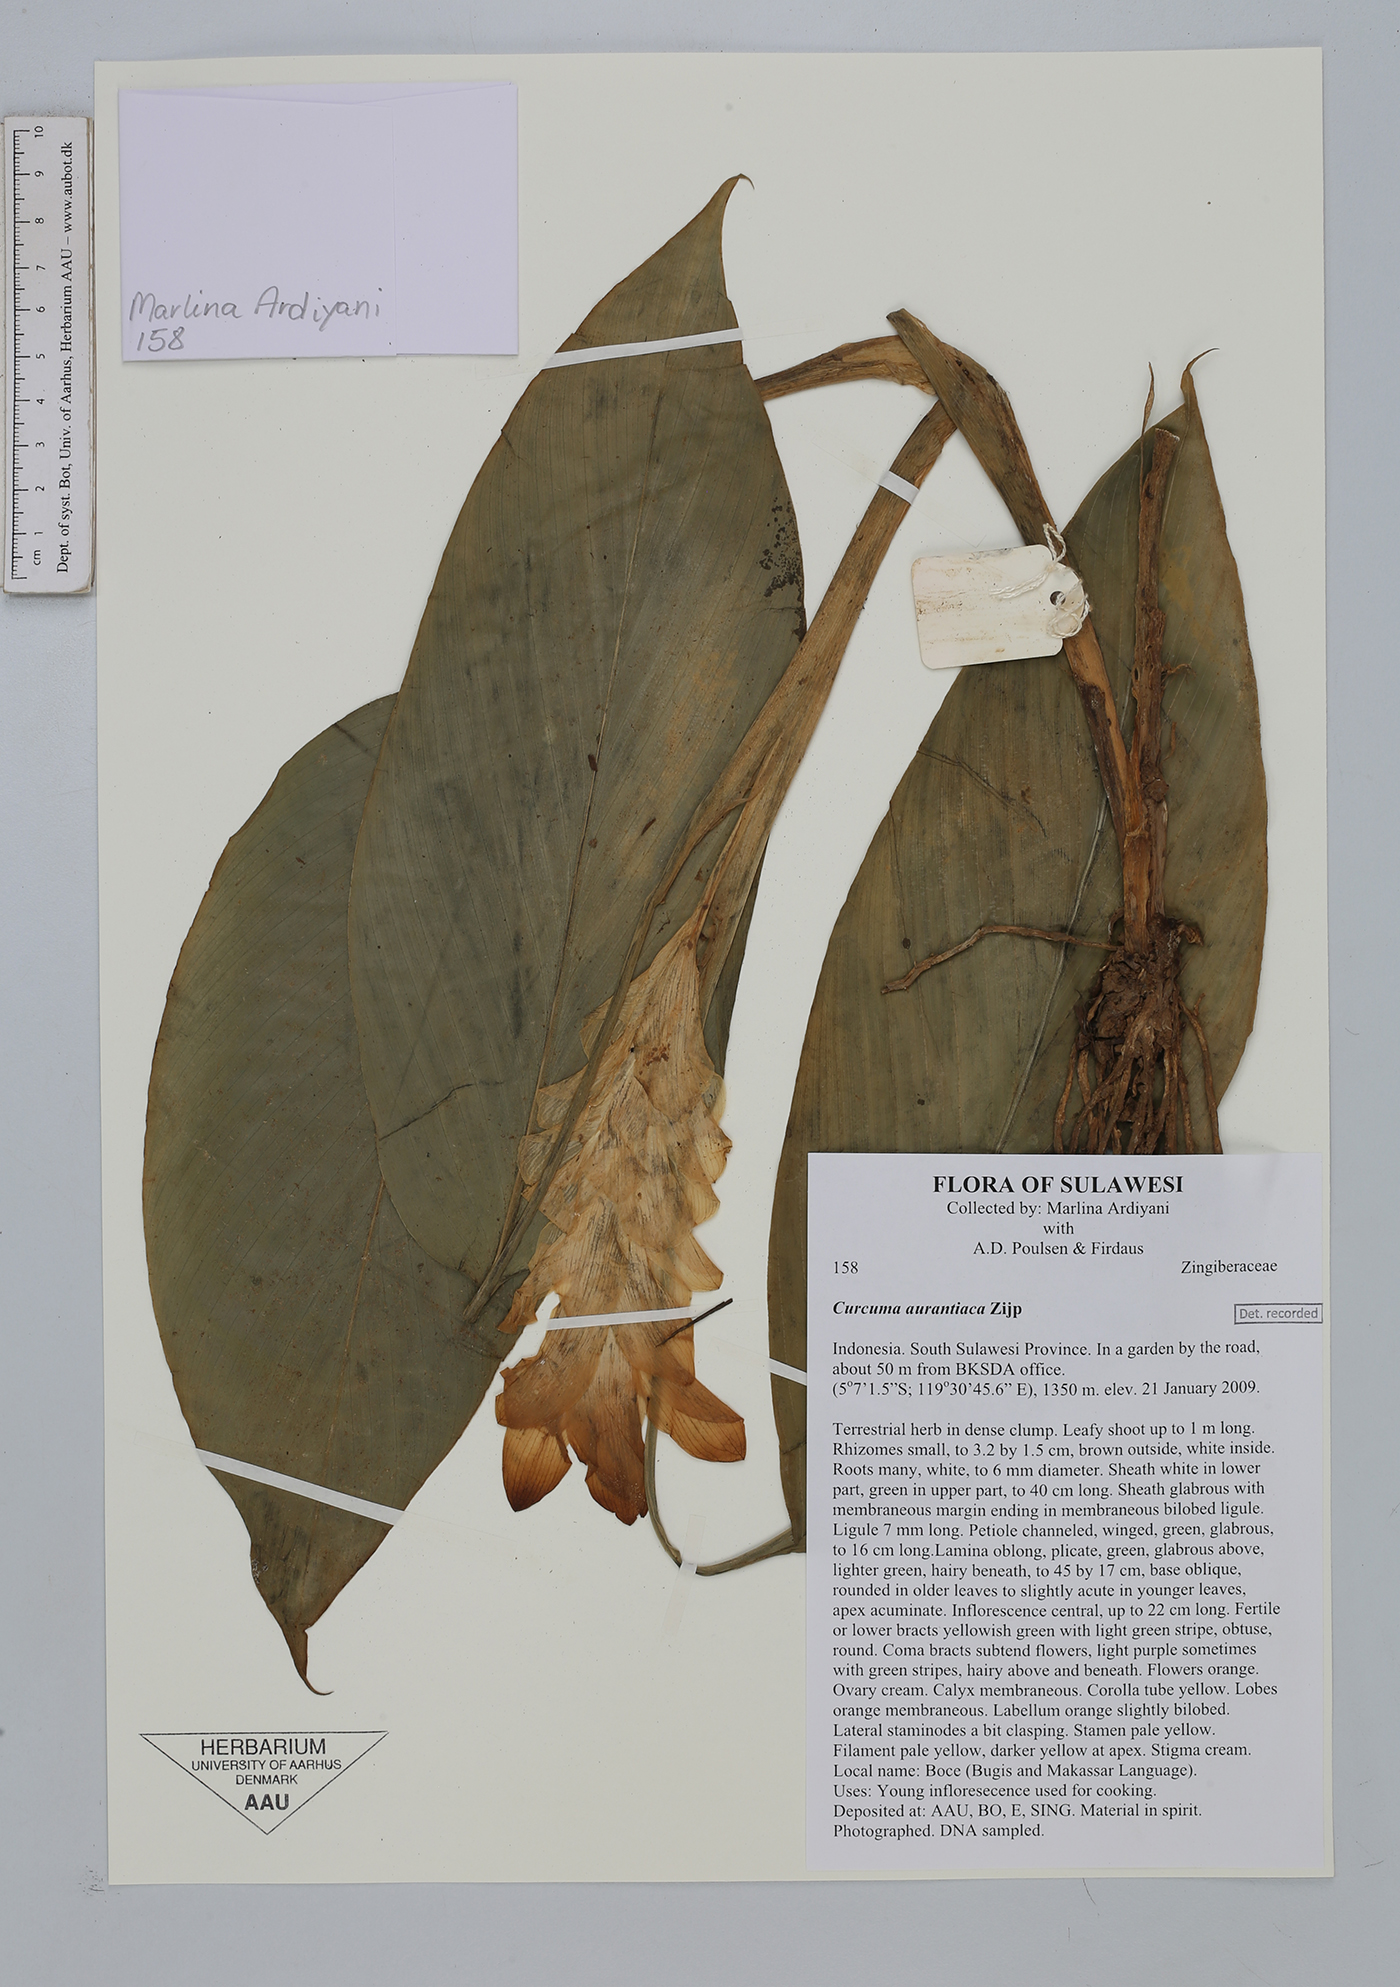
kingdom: Plantae
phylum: Tracheophyta
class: Liliopsida
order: Zingiberales
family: Zingiberaceae
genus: Curcuma
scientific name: Curcuma aurantiaca
